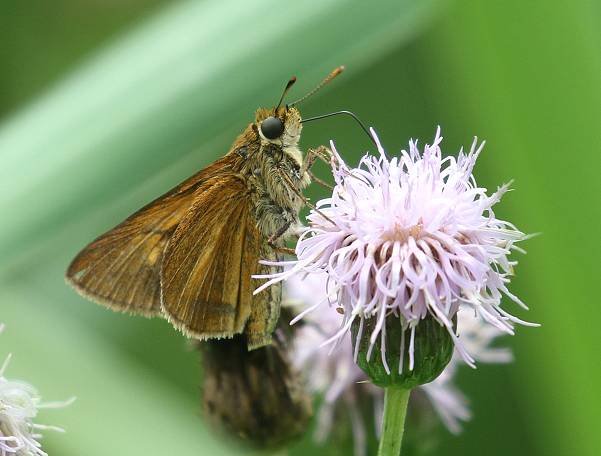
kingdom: Animalia
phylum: Arthropoda
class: Insecta
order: Lepidoptera
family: Hesperiidae
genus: Euphyes
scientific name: Euphyes dion
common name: Dion Skipper
